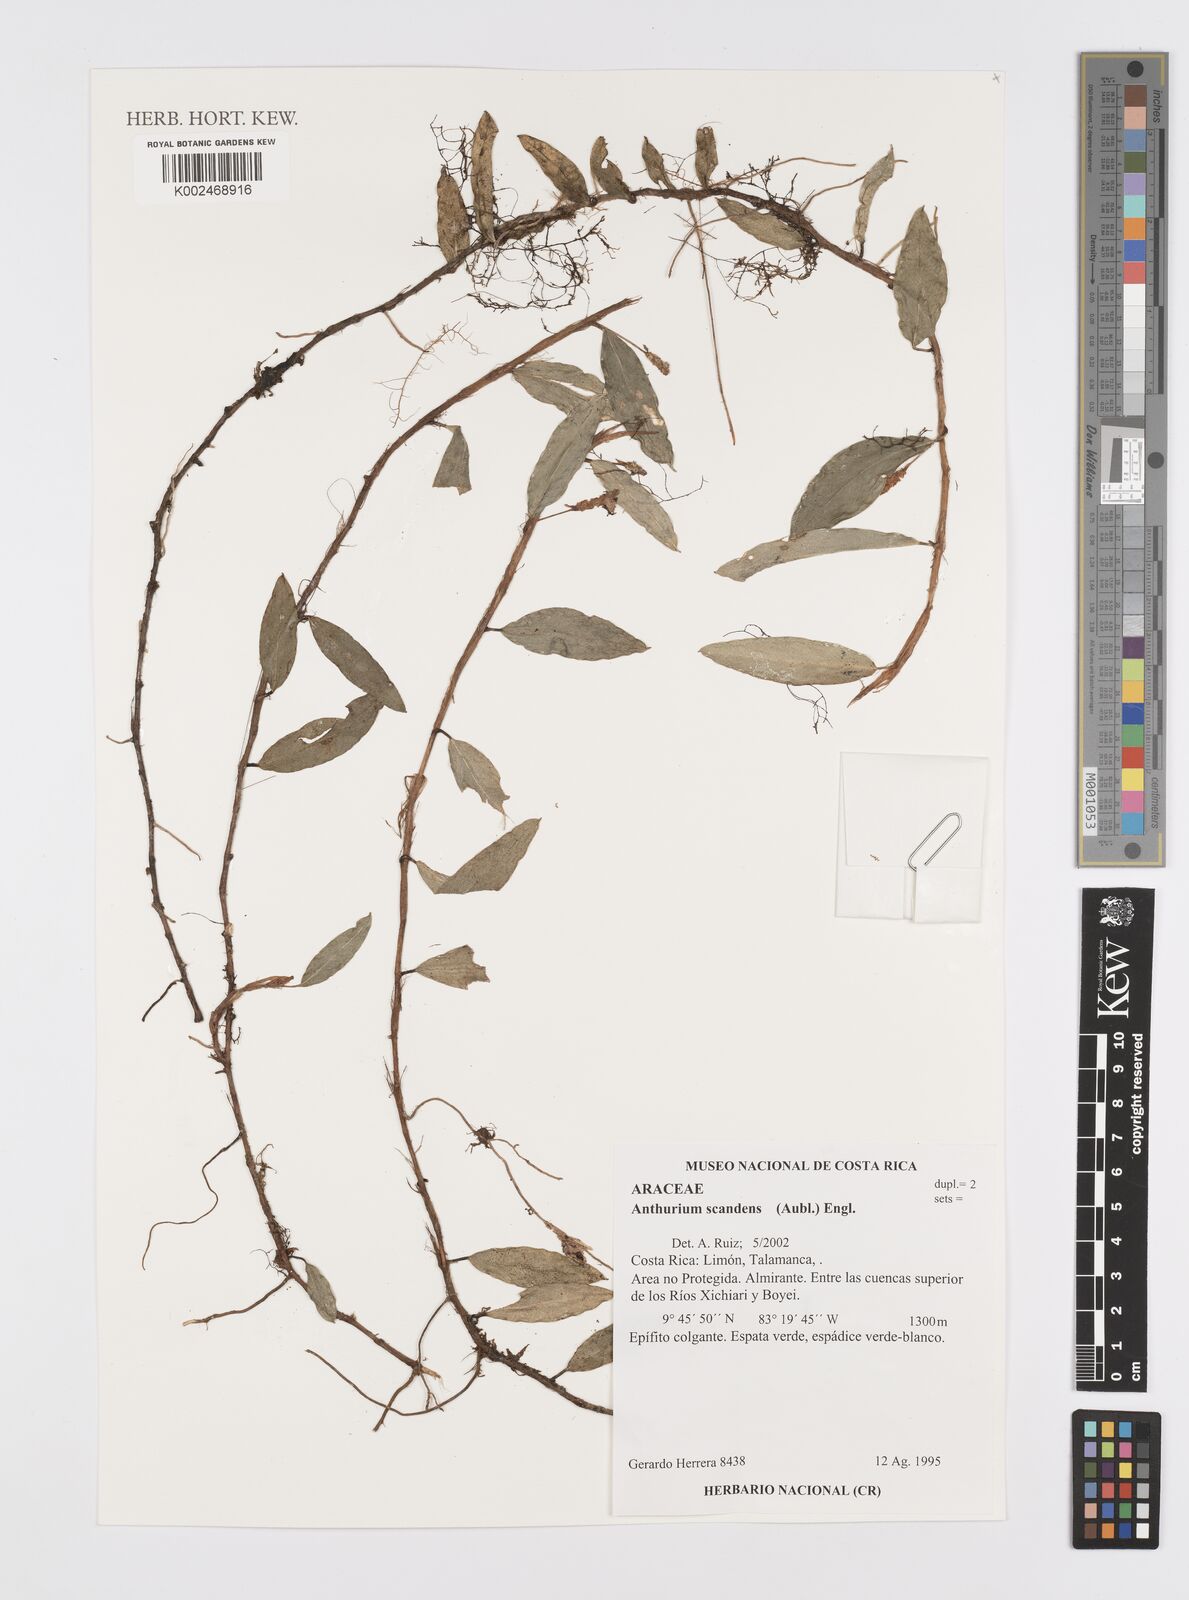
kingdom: Plantae
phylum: Tracheophyta
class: Liliopsida
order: Alismatales
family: Araceae
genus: Anthurium
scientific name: Anthurium scandens
